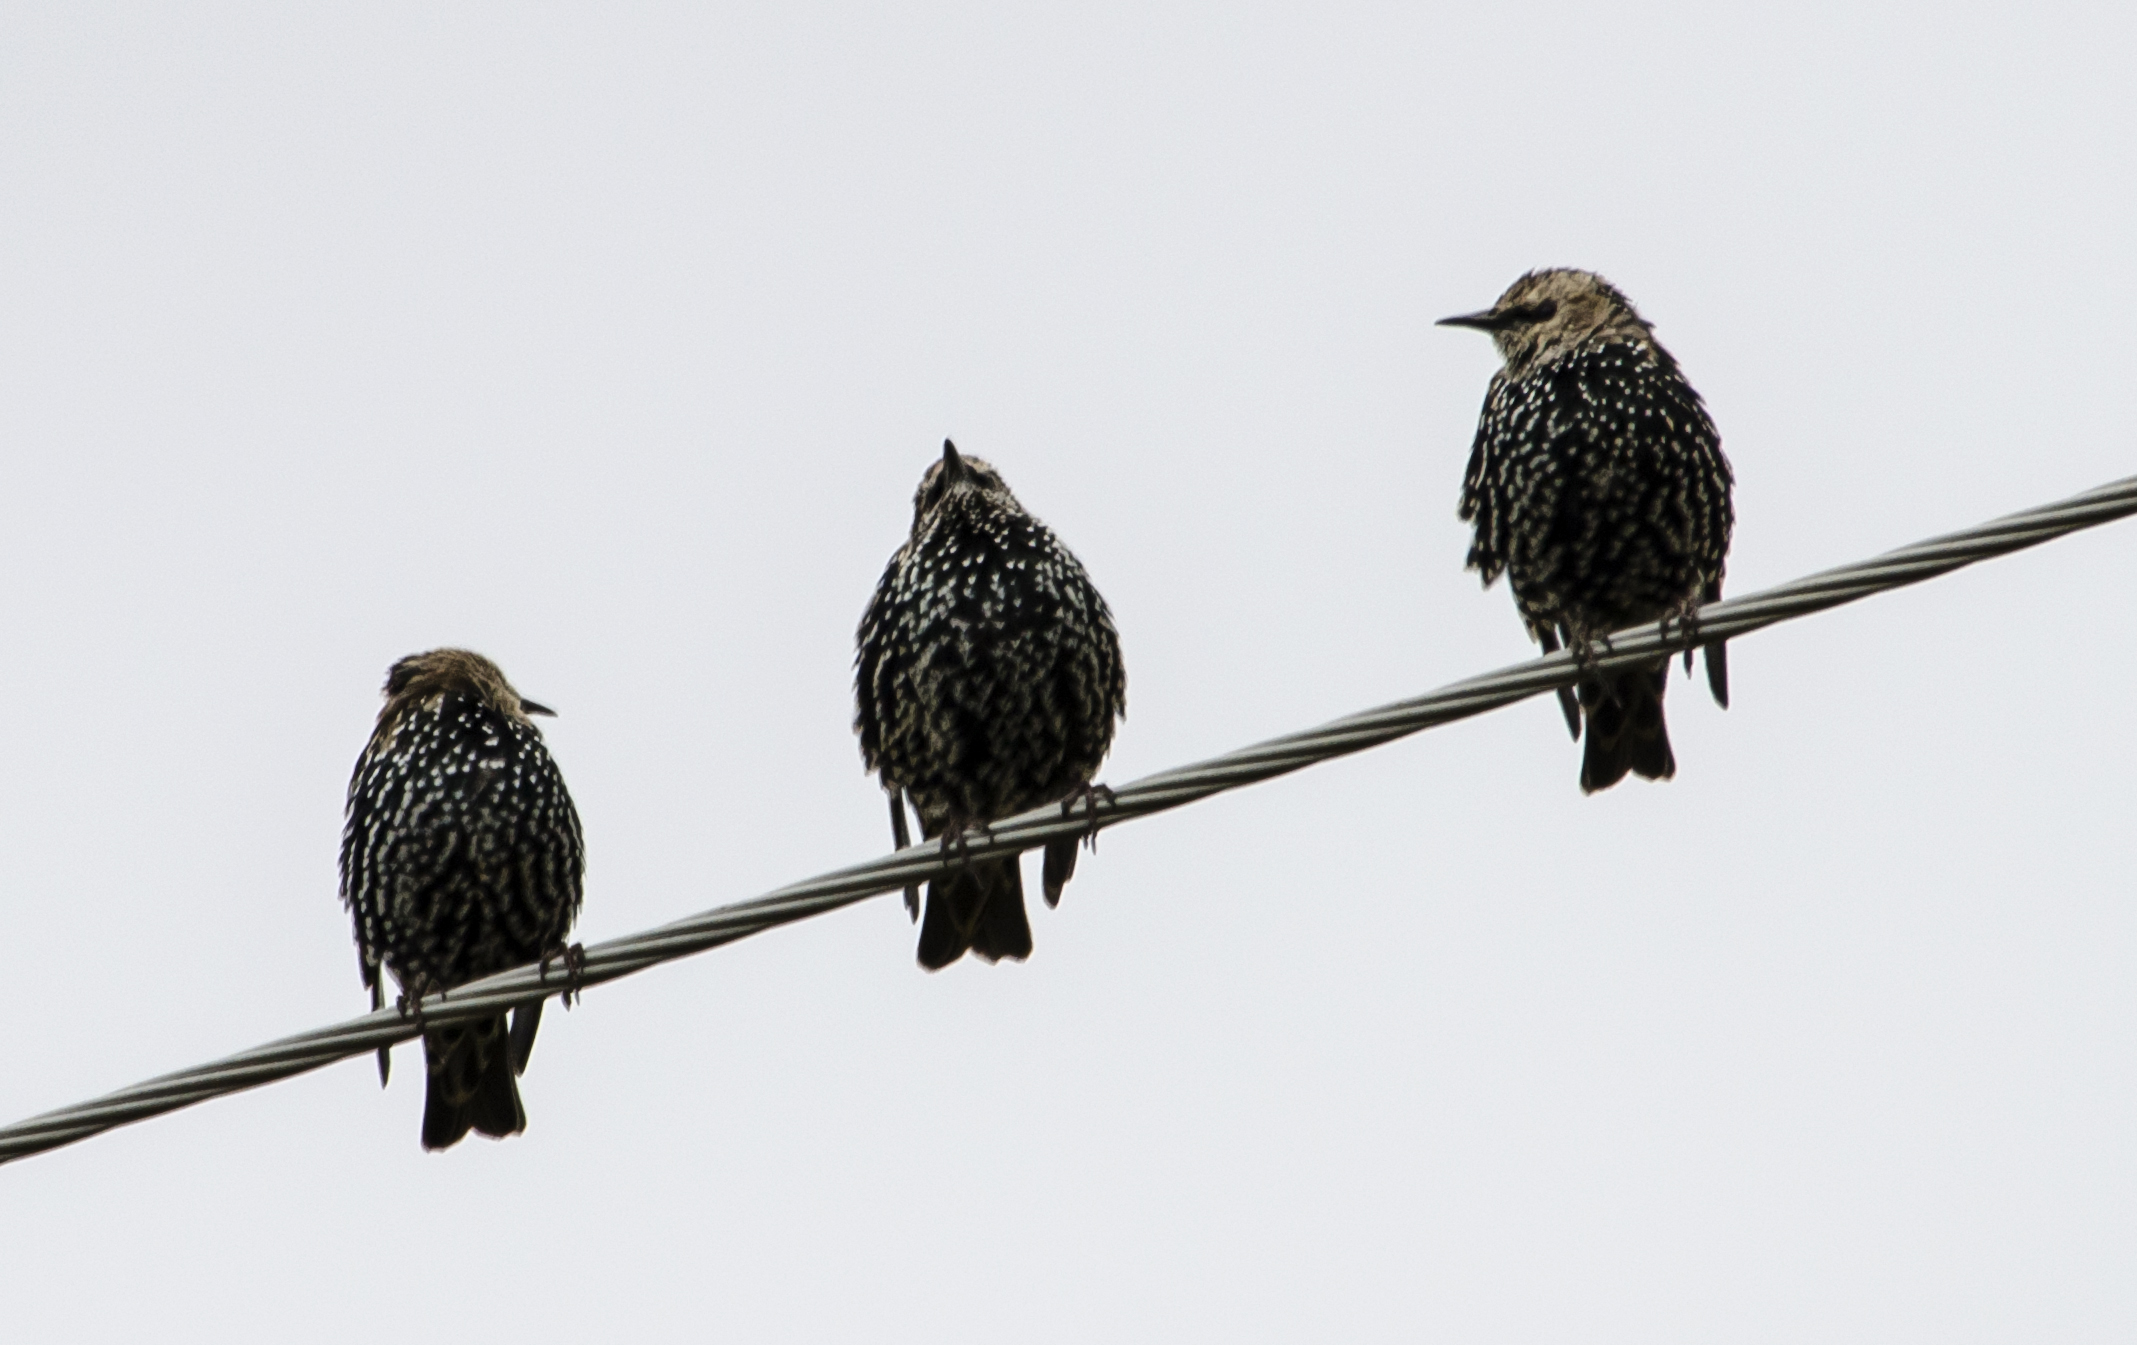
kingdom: Animalia
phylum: Chordata
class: Aves
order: Passeriformes
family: Sturnidae
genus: Sturnus
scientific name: Sturnus vulgaris
